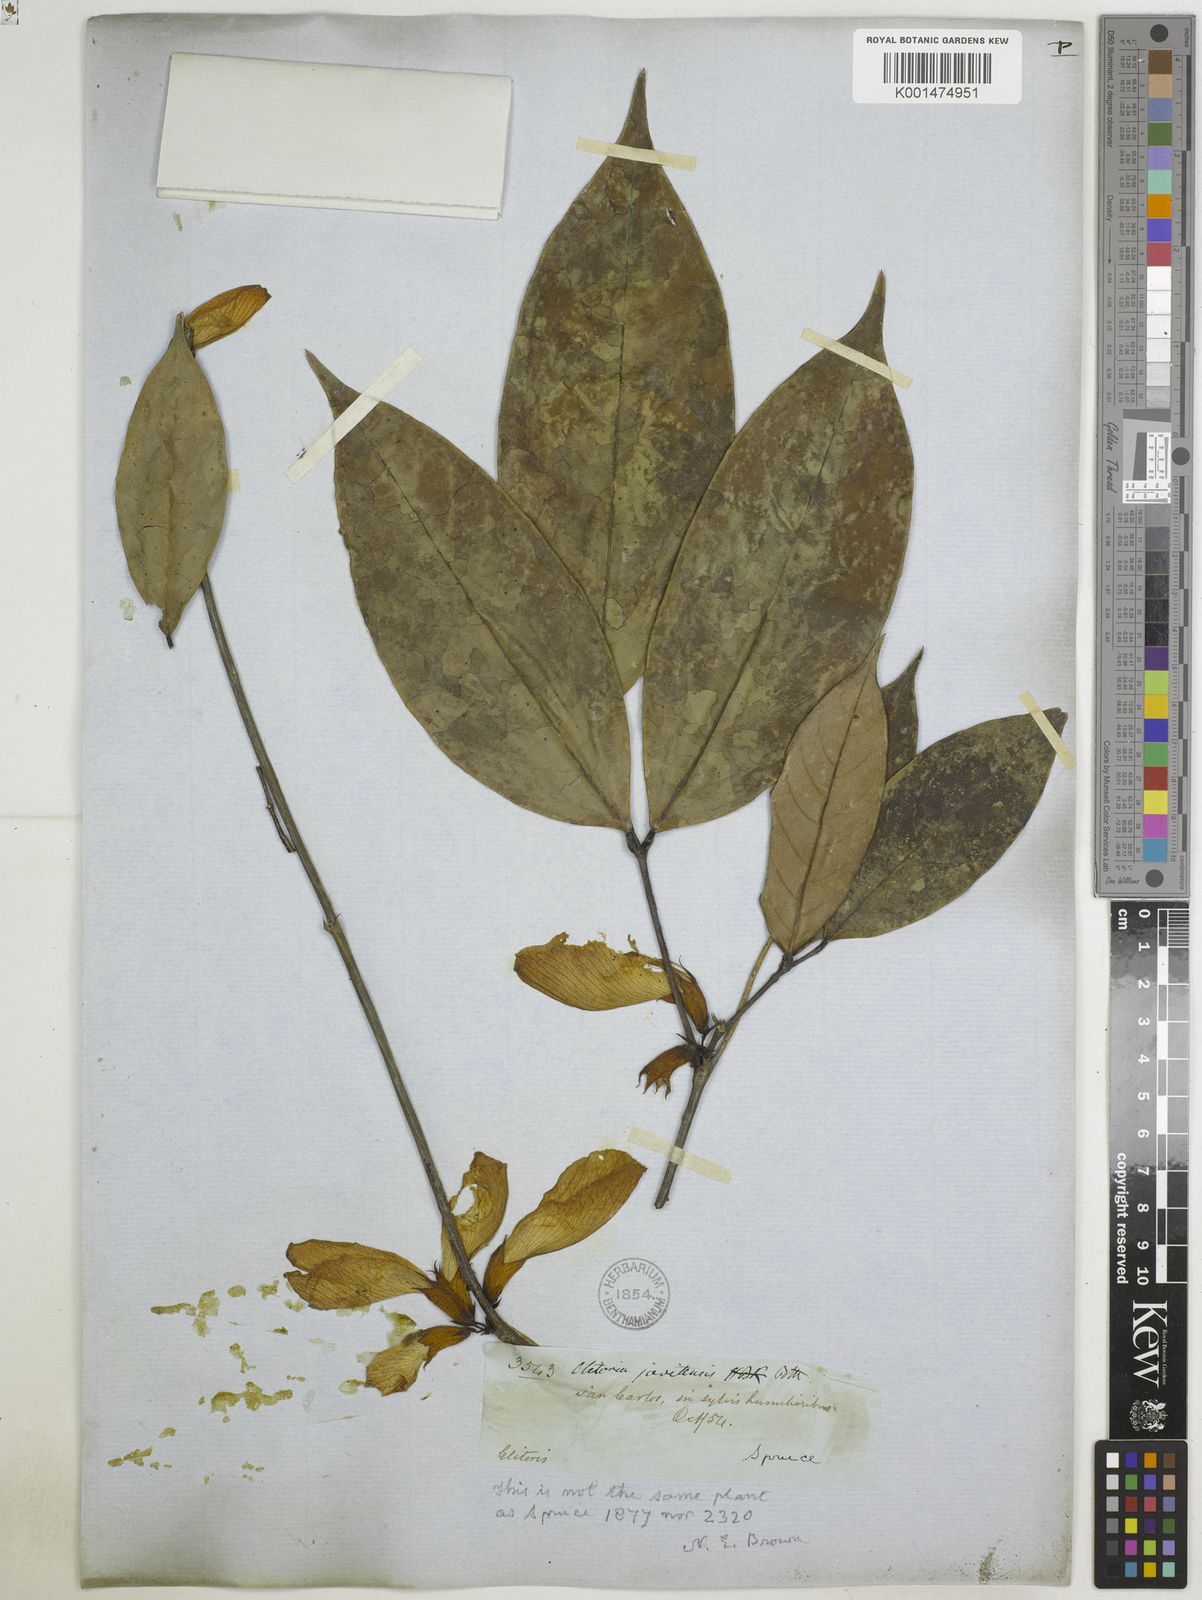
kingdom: Plantae
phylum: Tracheophyta
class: Magnoliopsida
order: Fabales
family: Fabaceae
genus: Clitoria
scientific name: Clitoria sagotii
